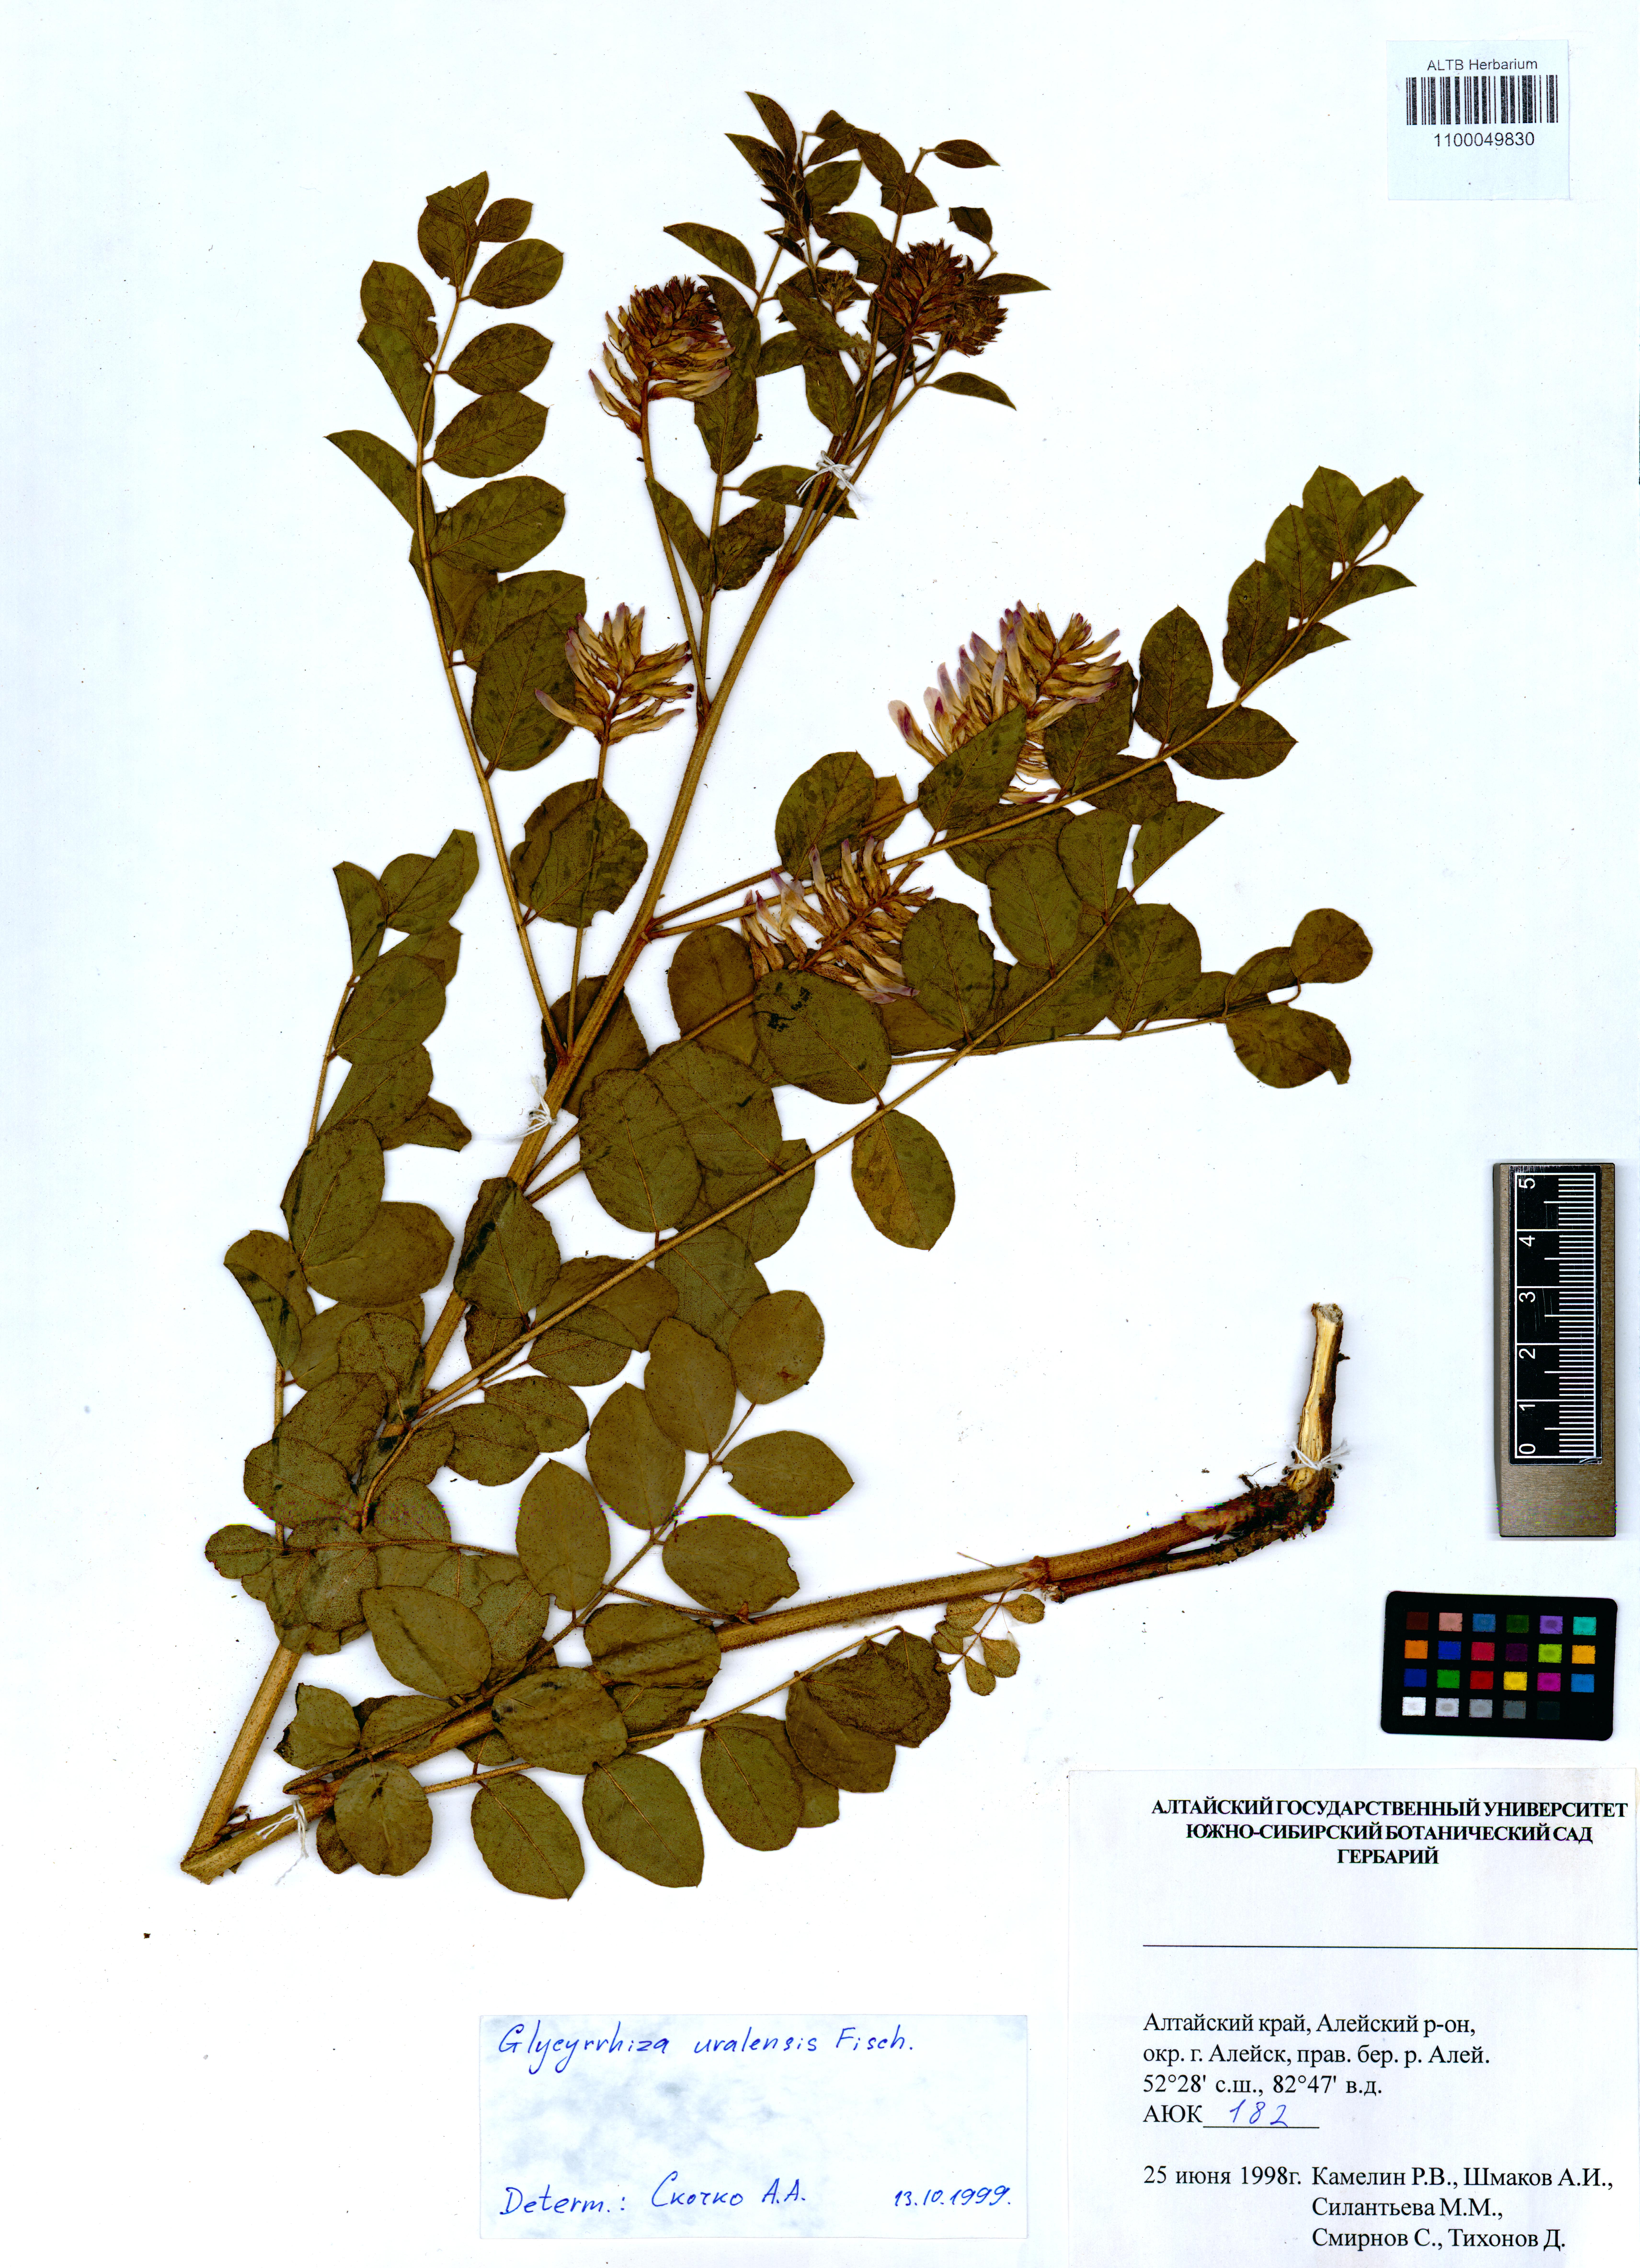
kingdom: Plantae
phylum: Tracheophyta
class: Magnoliopsida
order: Fabales
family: Fabaceae
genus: Glycyrrhiza
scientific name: Glycyrrhiza uralensis
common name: Chinese licorice
